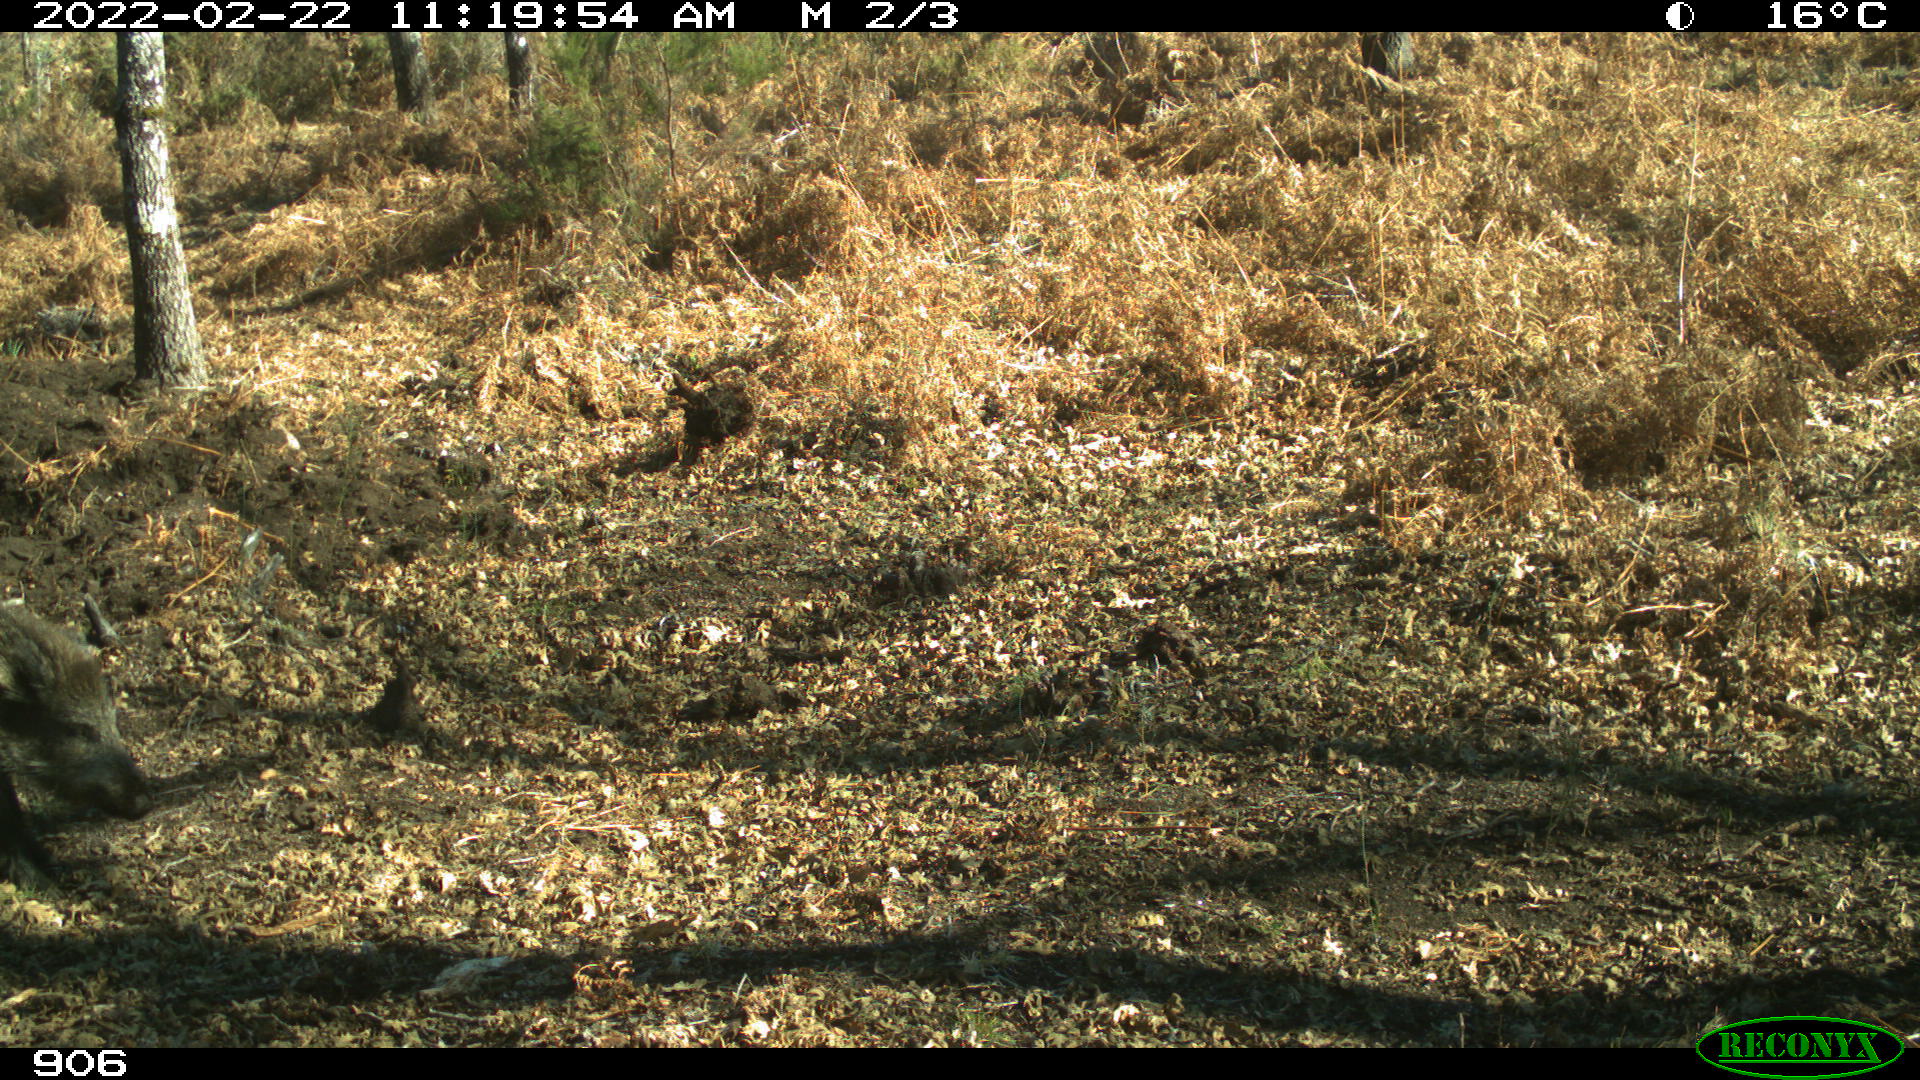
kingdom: Animalia
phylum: Chordata
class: Mammalia
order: Artiodactyla
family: Suidae
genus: Sus
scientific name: Sus scrofa
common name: Wild boar
